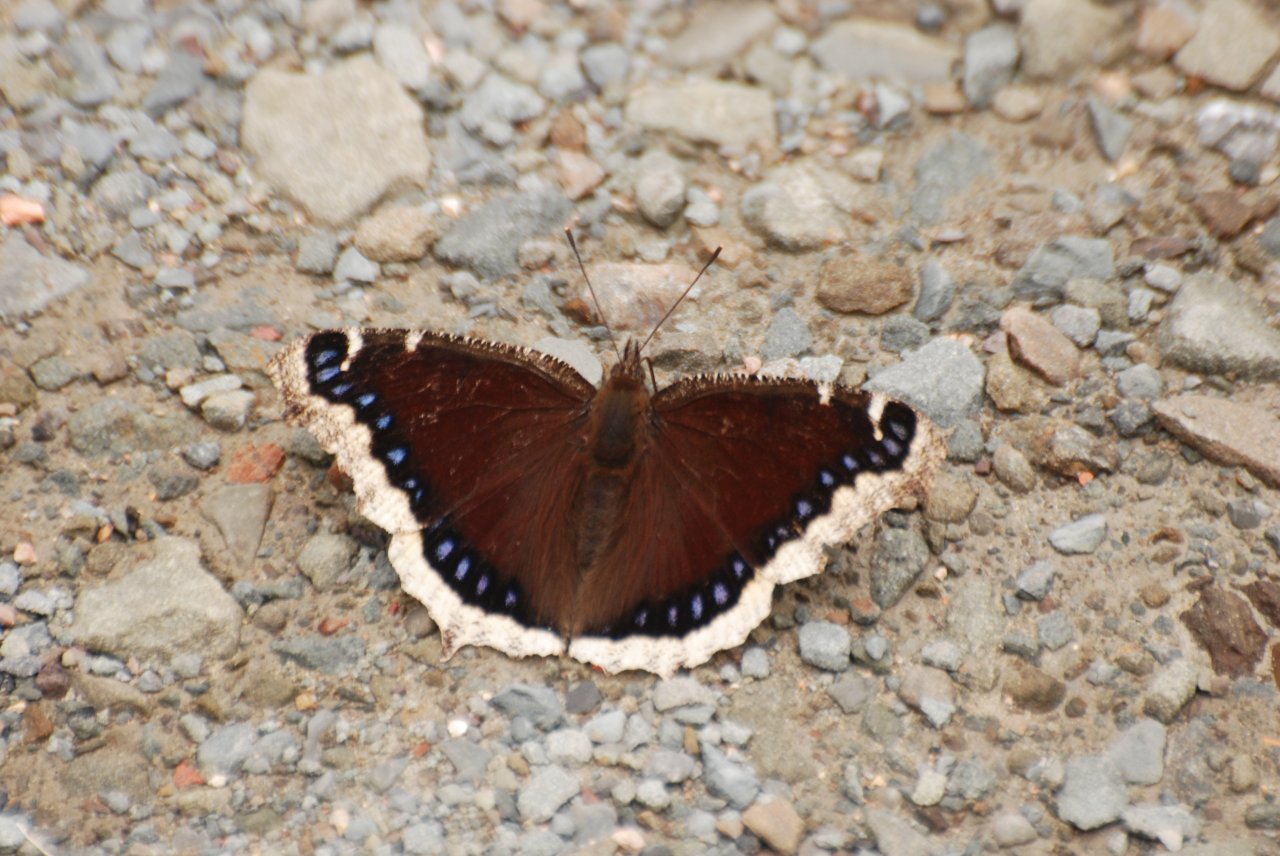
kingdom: Animalia
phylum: Arthropoda
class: Insecta
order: Lepidoptera
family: Nymphalidae
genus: Nymphalis
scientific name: Nymphalis antiopa
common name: Mourning Cloak
